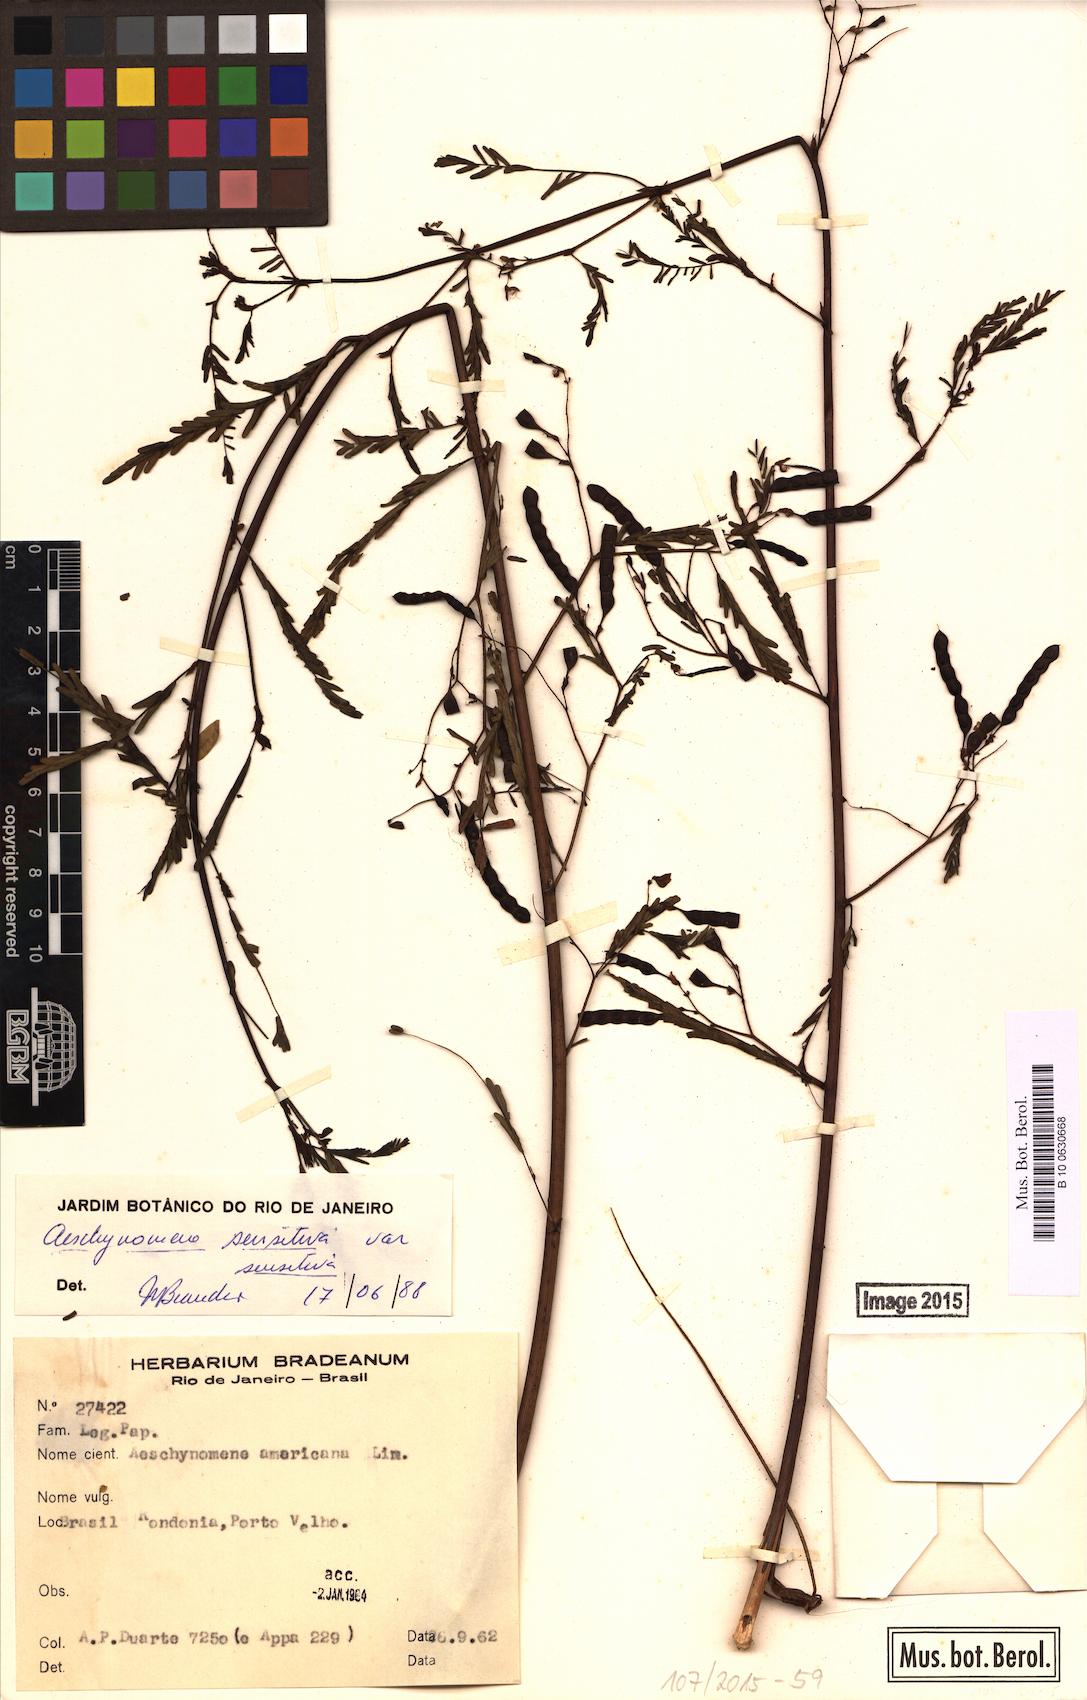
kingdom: Plantae
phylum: Tracheophyta
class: Magnoliopsida
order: Fabales
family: Fabaceae
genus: Aeschynomene
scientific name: Aeschynomene sensitiva
